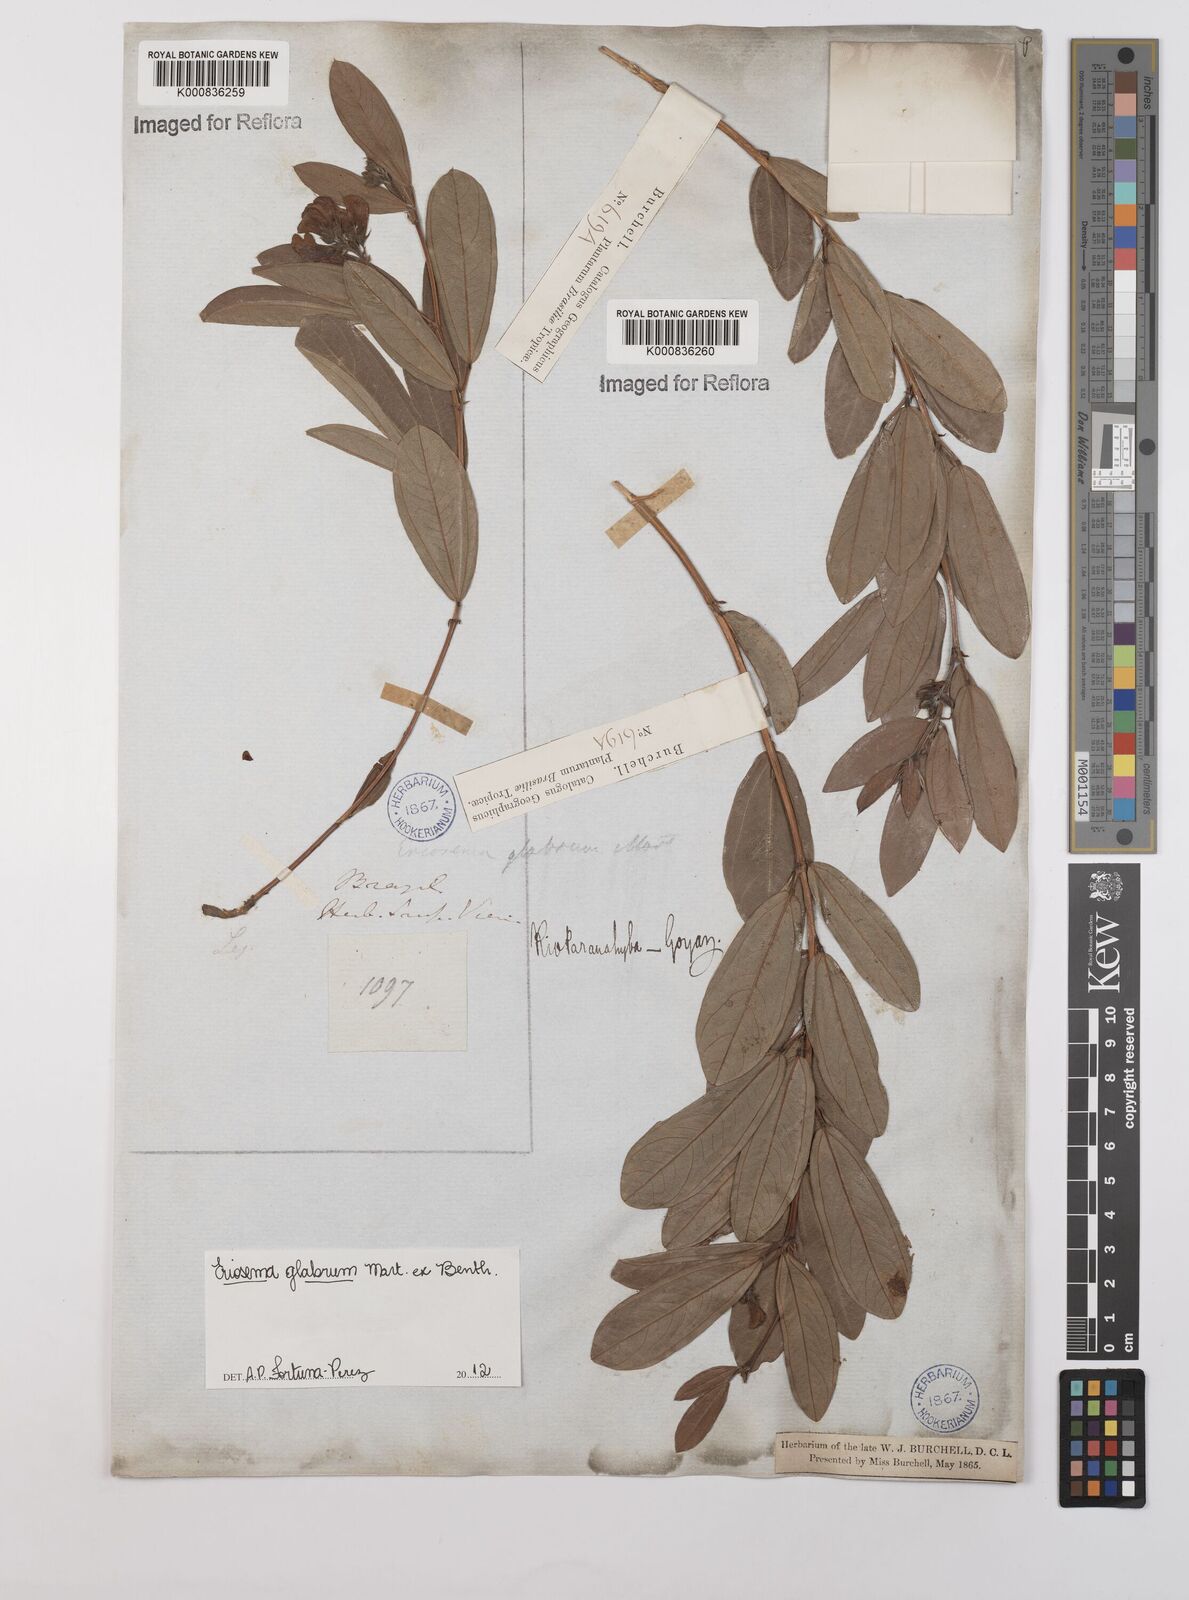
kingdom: Plantae
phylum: Tracheophyta
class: Magnoliopsida
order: Fabales
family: Fabaceae
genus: Eriosema
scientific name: Eriosema glabrum
